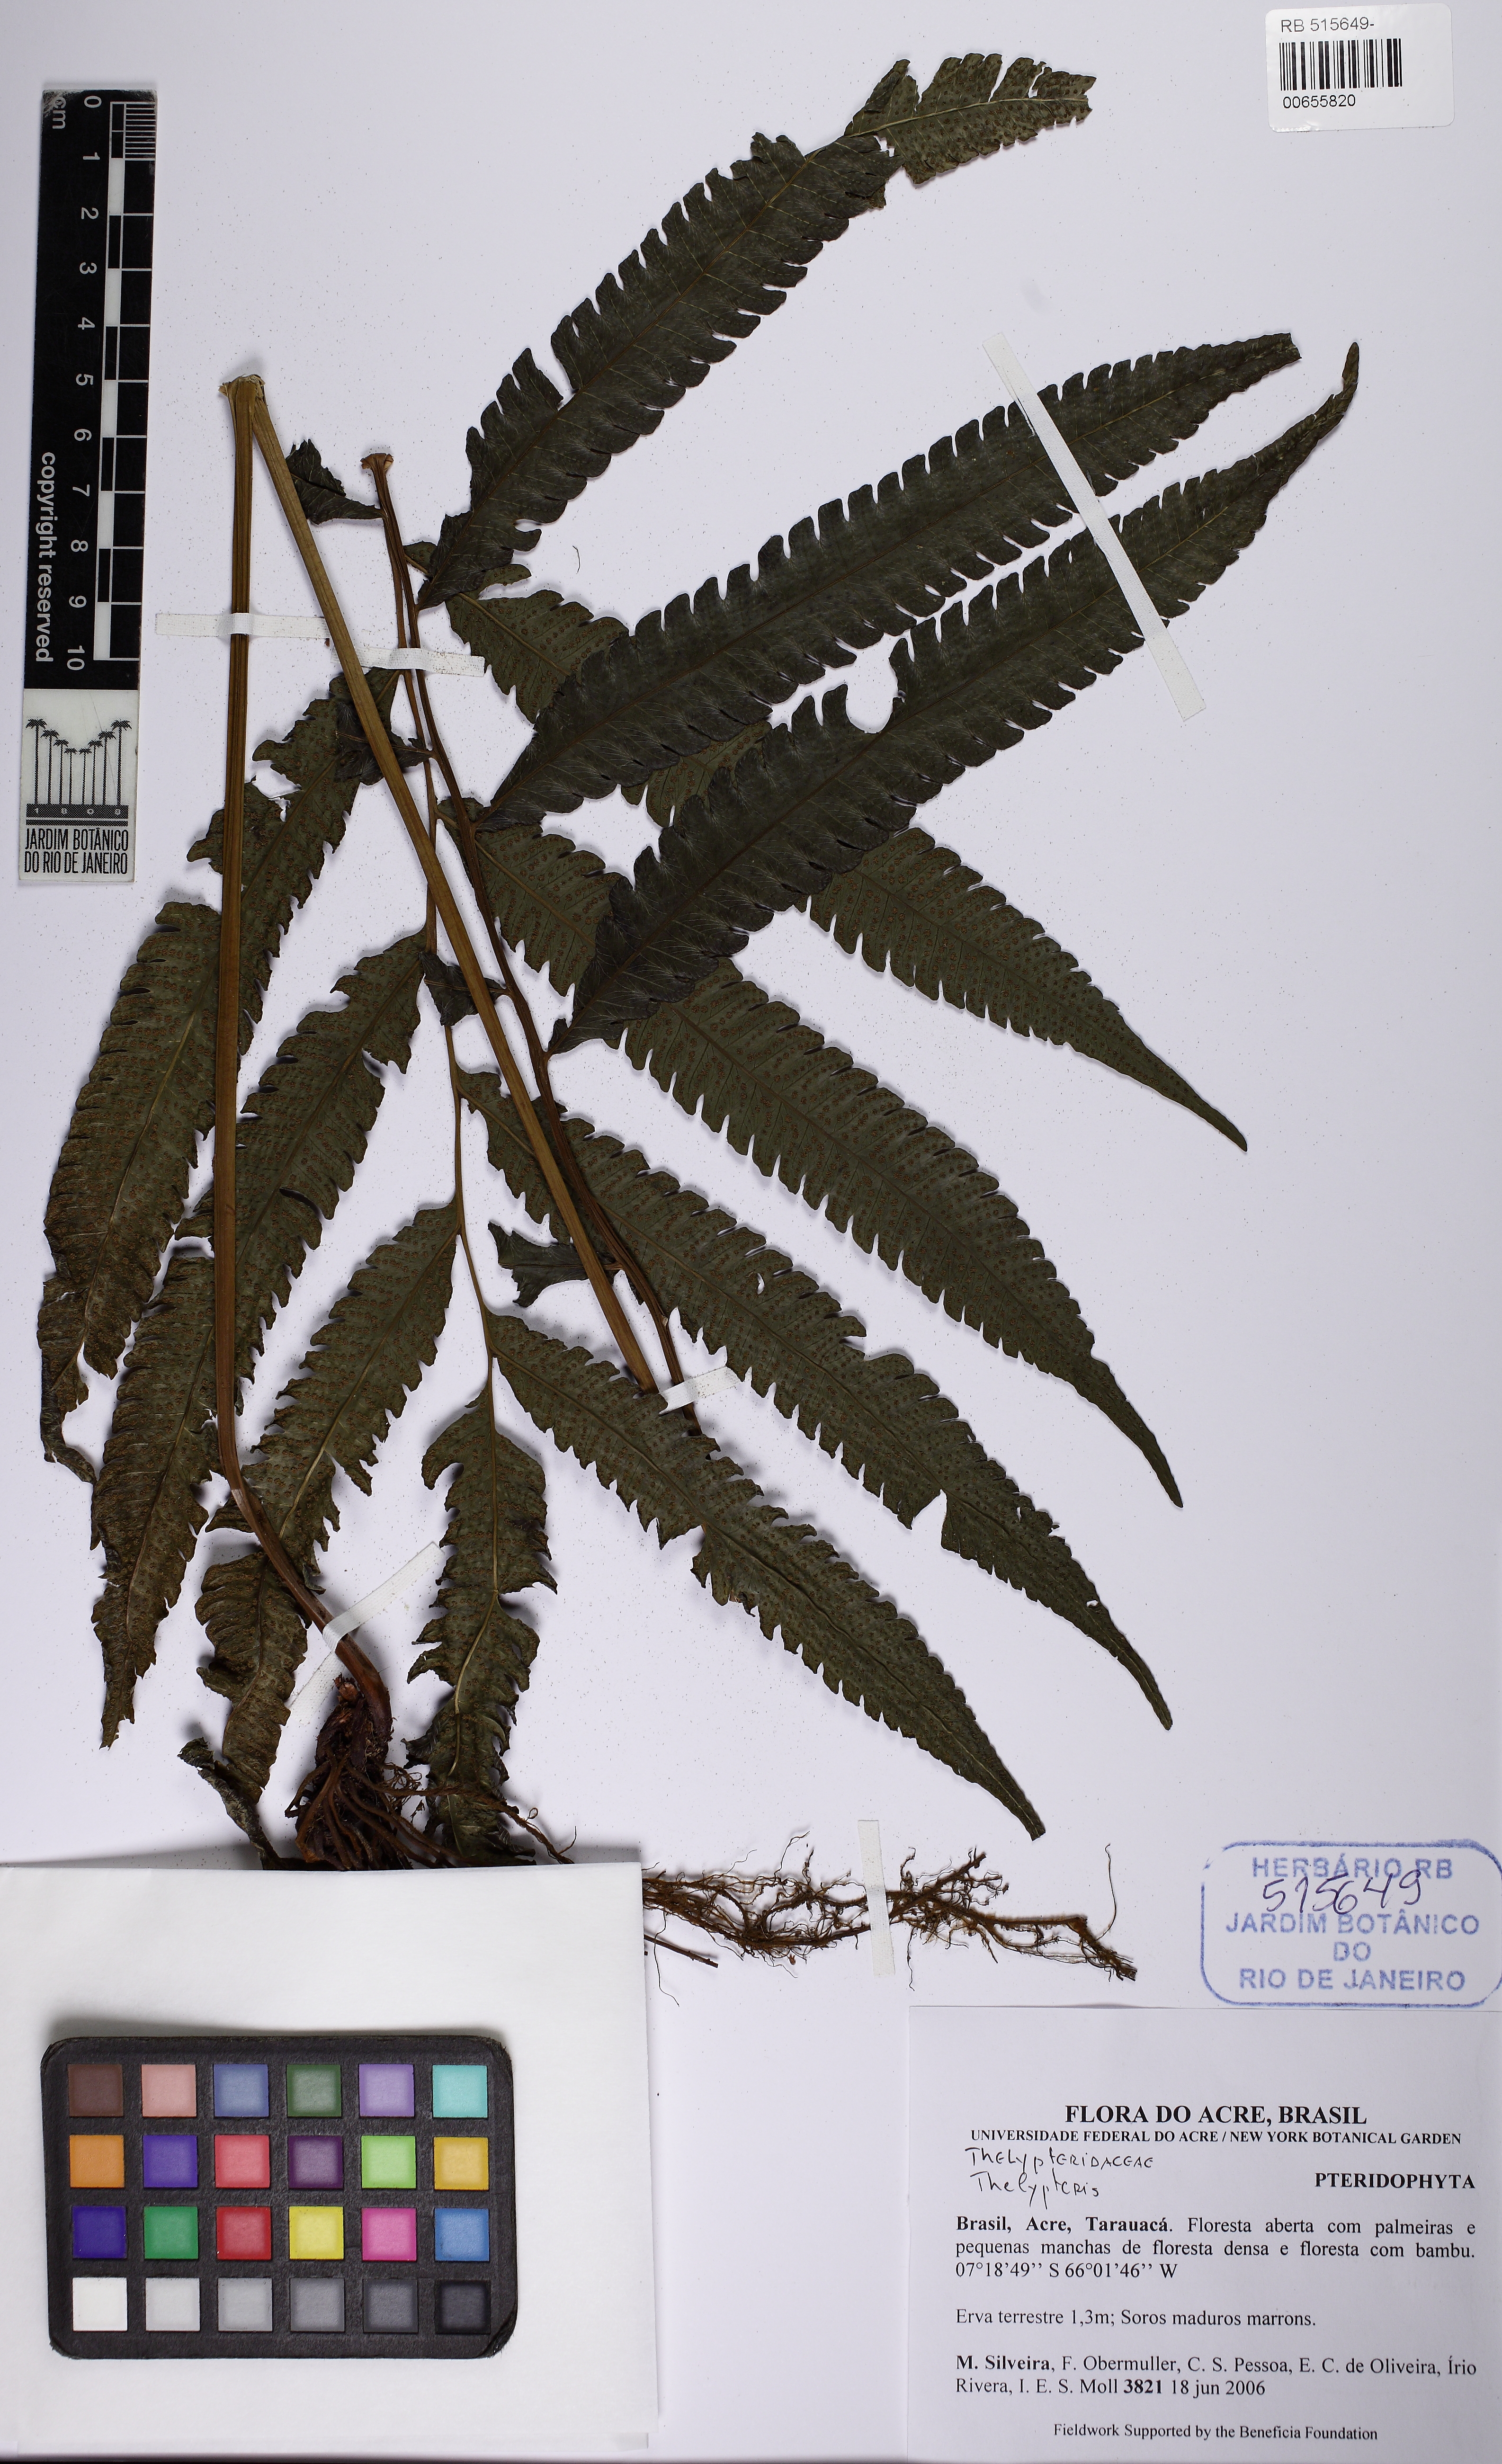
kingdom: Plantae
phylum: Tracheophyta
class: Polypodiopsida
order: Polypodiales
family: Thelypteridaceae
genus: Goniopteris
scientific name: Goniopteris juruensis
